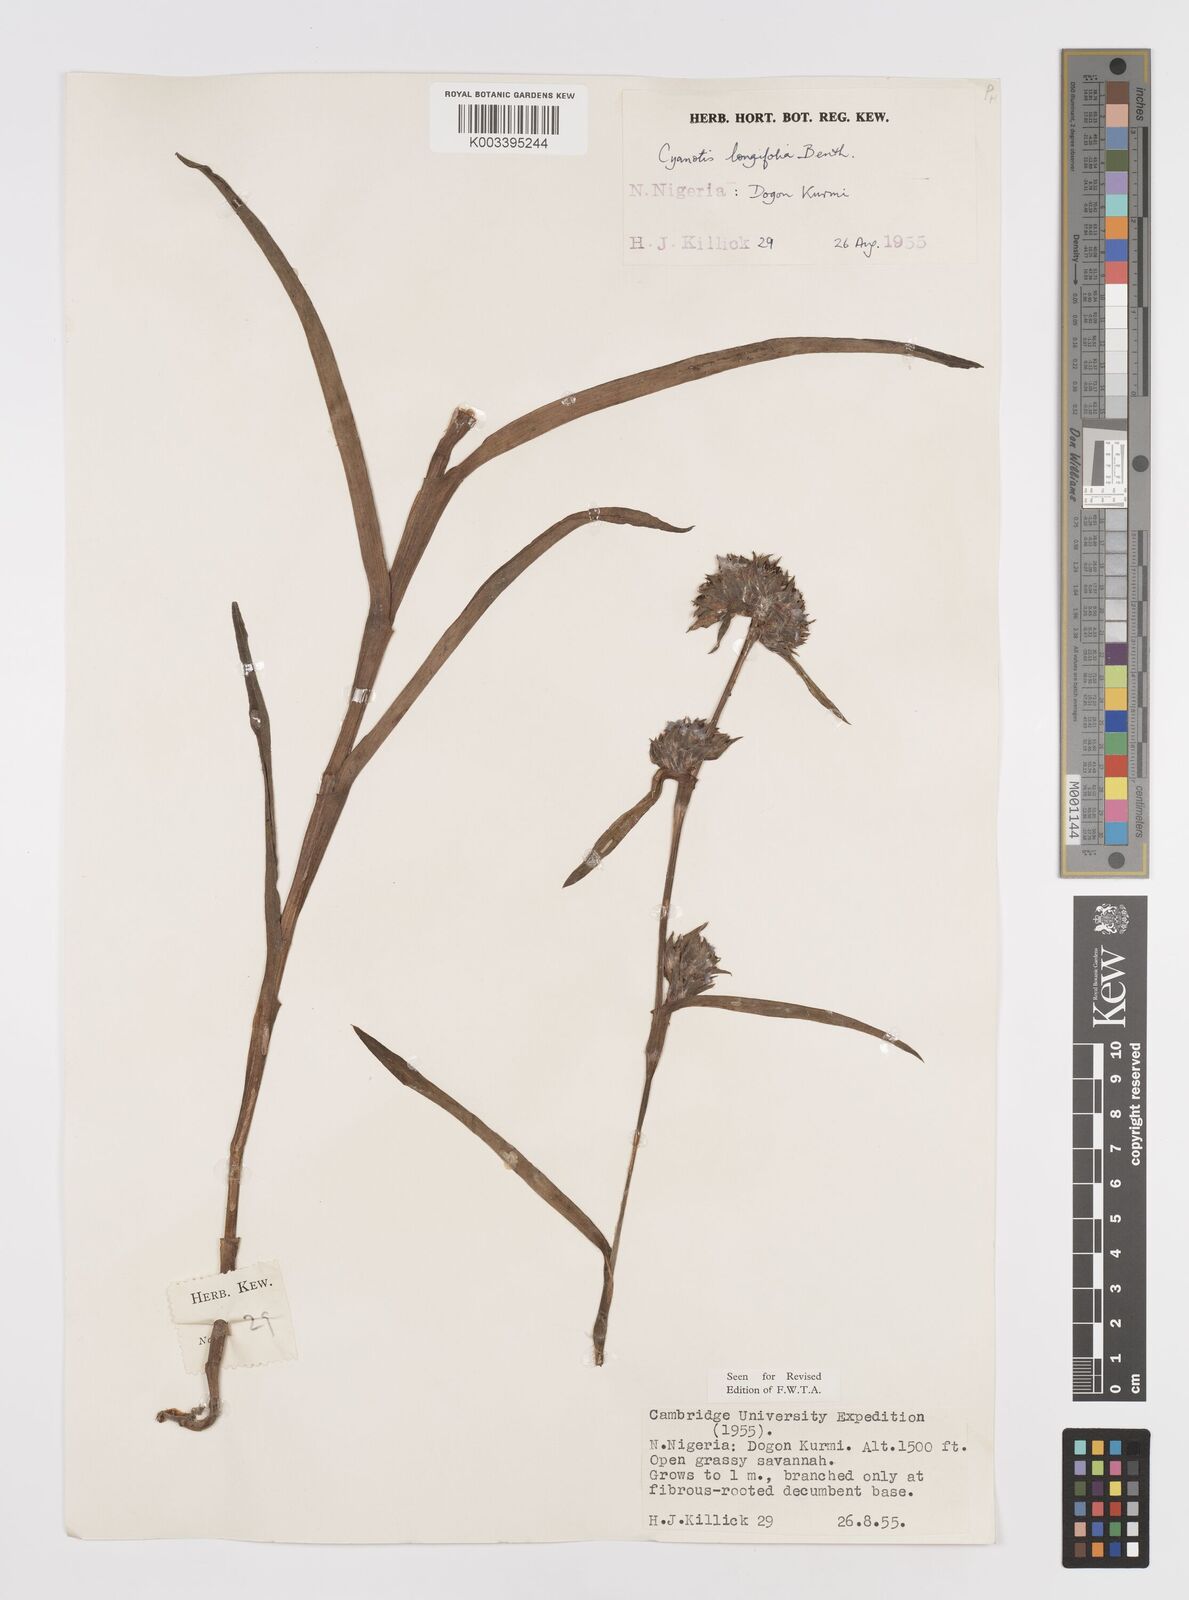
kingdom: Plantae
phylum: Tracheophyta
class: Liliopsida
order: Commelinales
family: Commelinaceae
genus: Cyanotis
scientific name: Cyanotis
